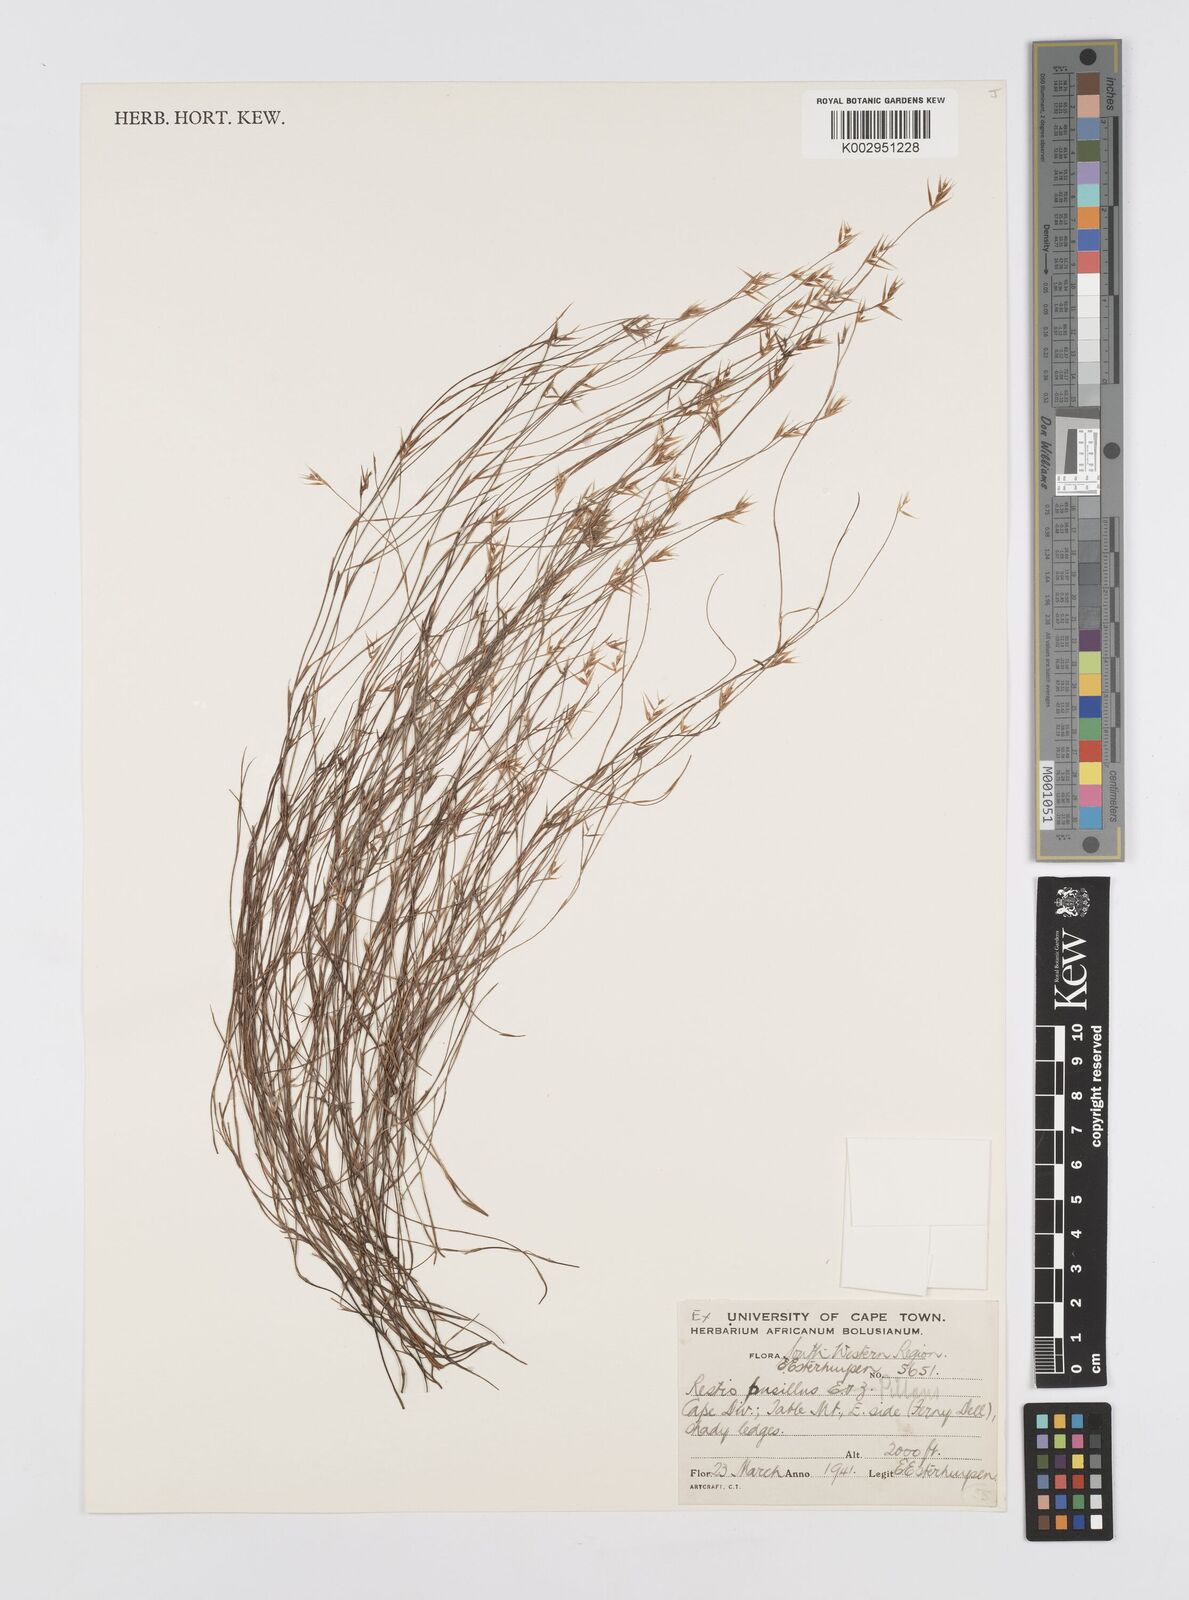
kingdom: Plantae
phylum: Tracheophyta
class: Liliopsida
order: Poales
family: Restionaceae
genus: Restio
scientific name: Restio leptostachyus
